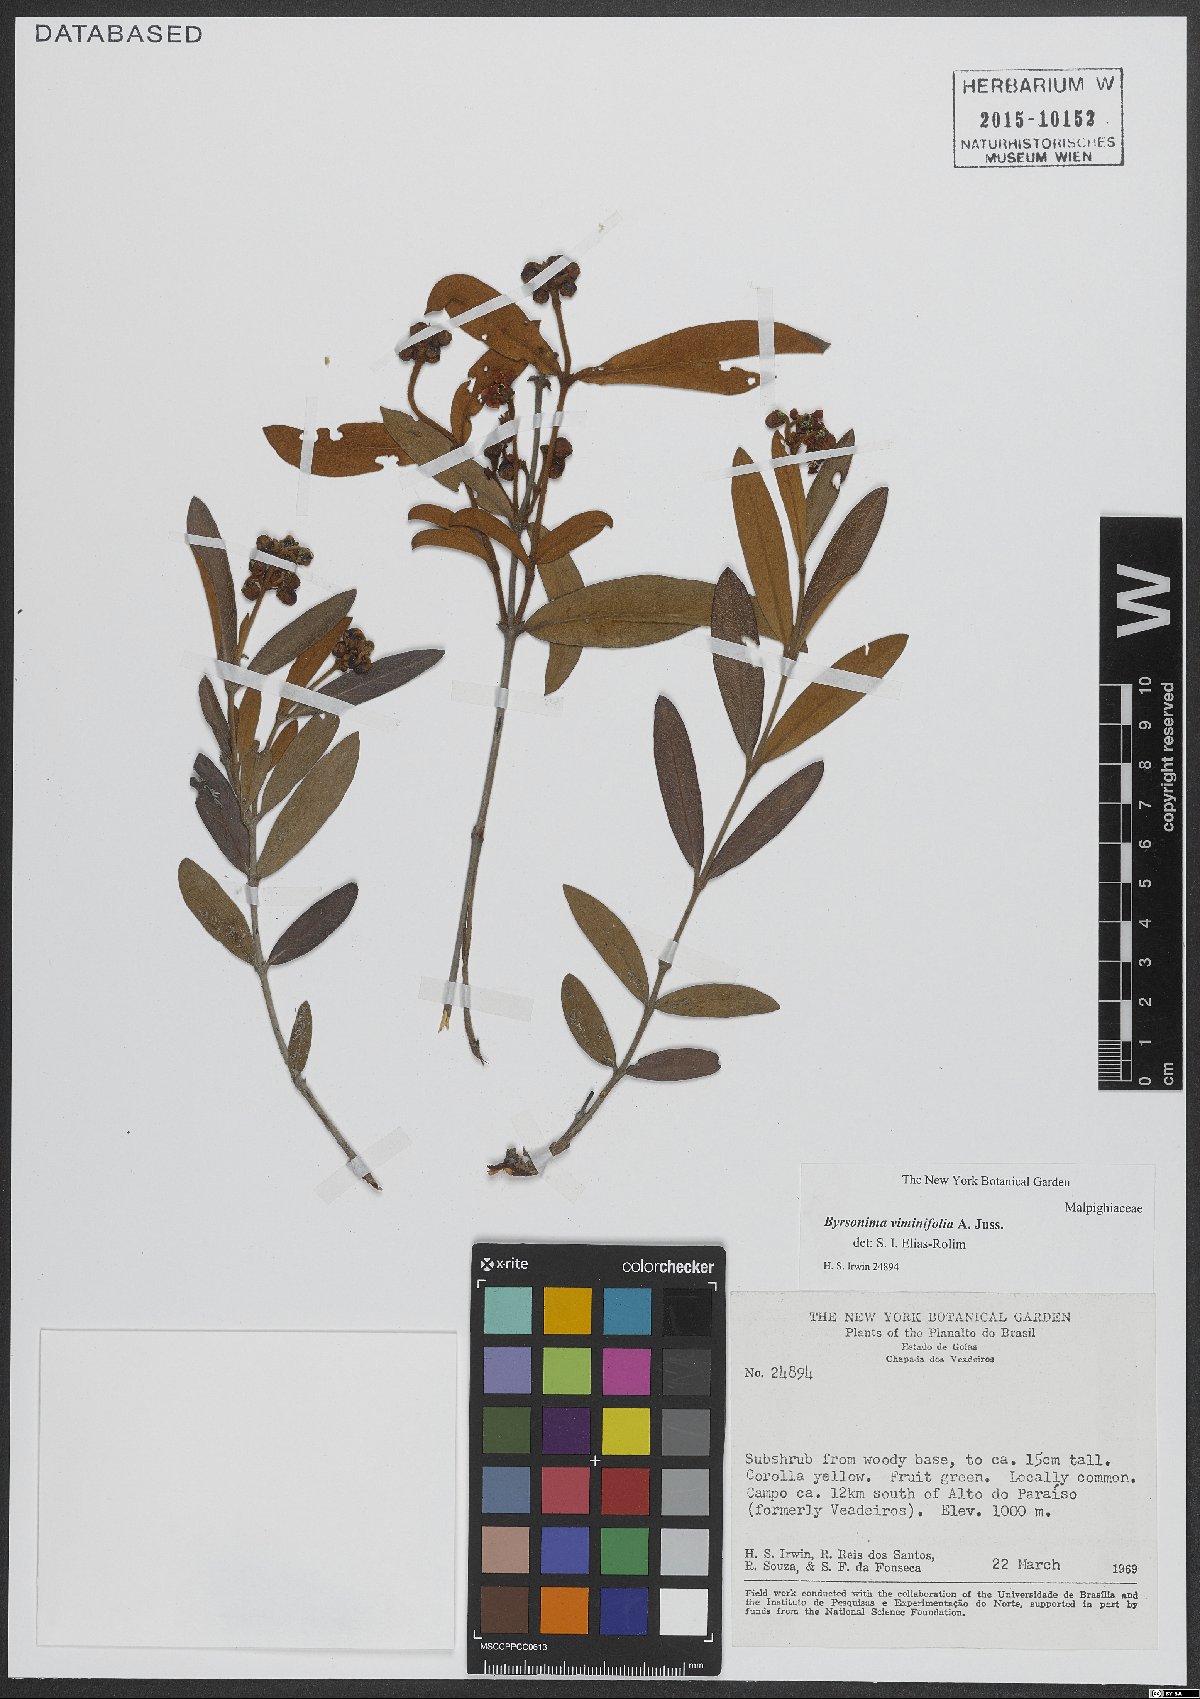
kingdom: Plantae
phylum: Tracheophyta
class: Magnoliopsida
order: Malpighiales
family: Malpighiaceae
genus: Byrsonima
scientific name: Byrsonima viminifolia
